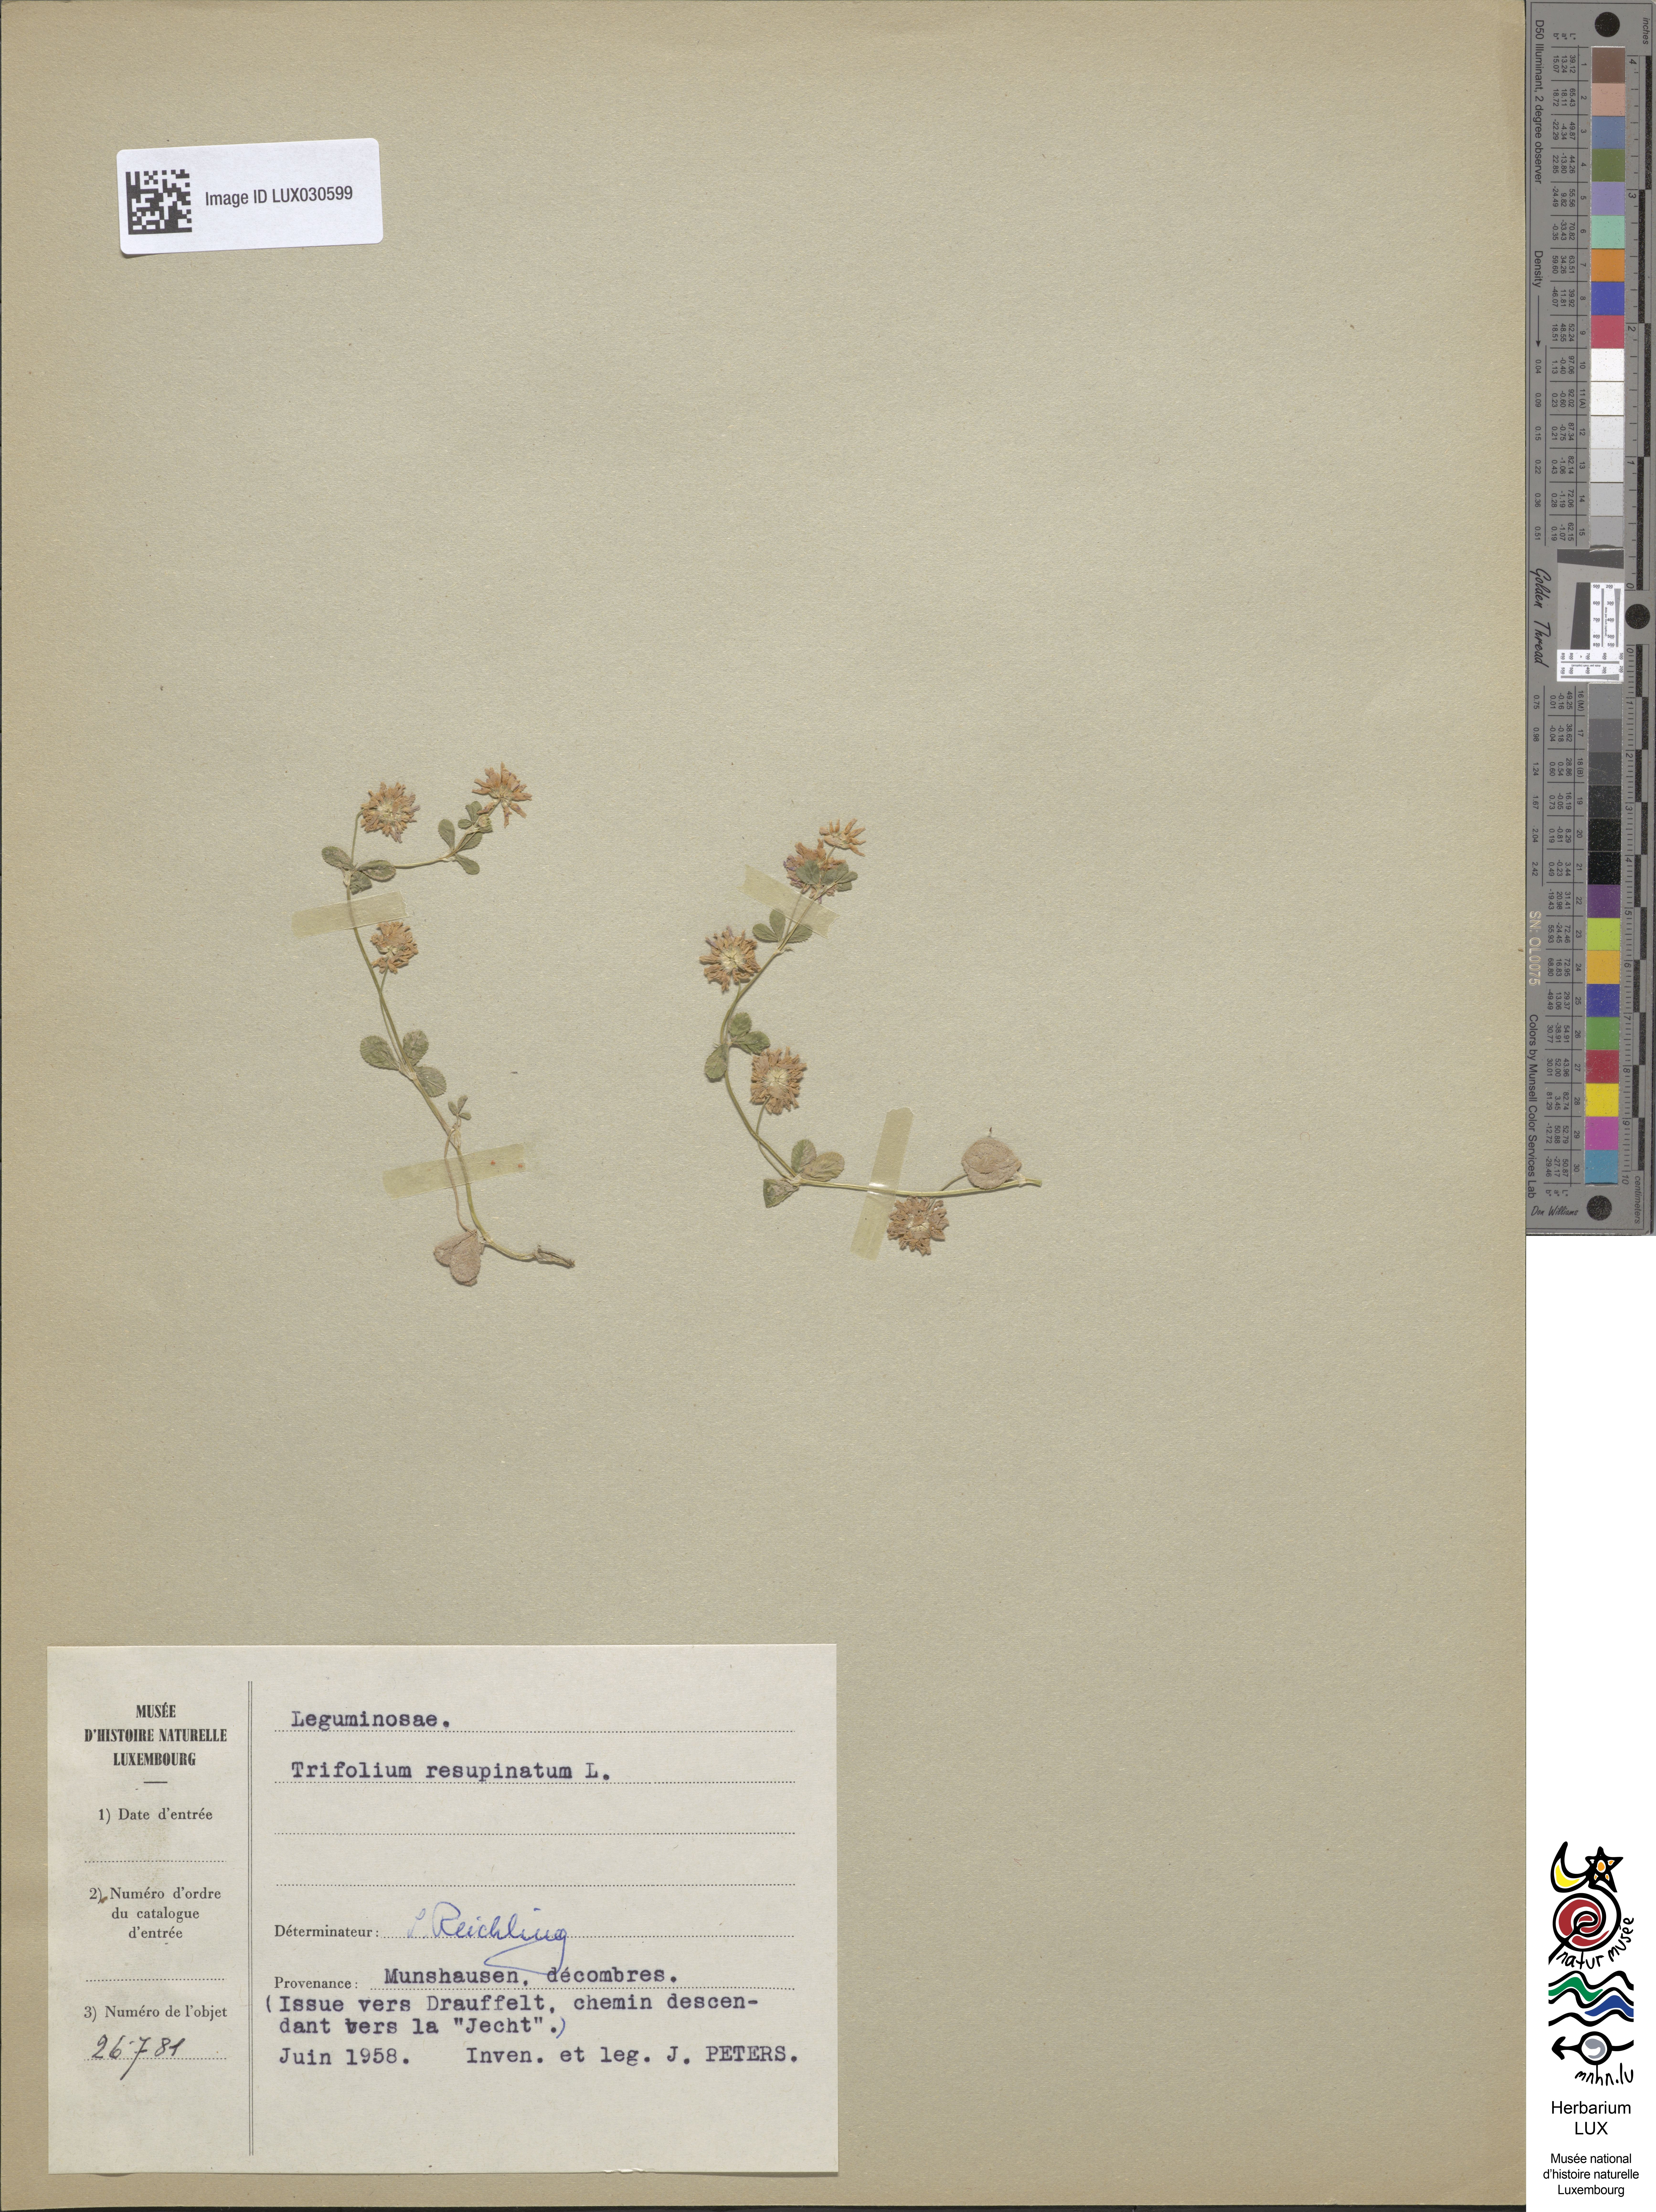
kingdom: Plantae
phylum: Tracheophyta
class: Magnoliopsida
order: Fabales
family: Fabaceae
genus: Trifolium
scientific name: Trifolium resupinatum
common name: Reversed clover
